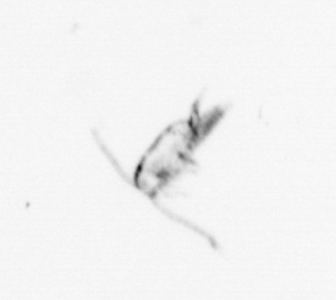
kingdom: Animalia
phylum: Arthropoda
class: Copepoda
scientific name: Copepoda
